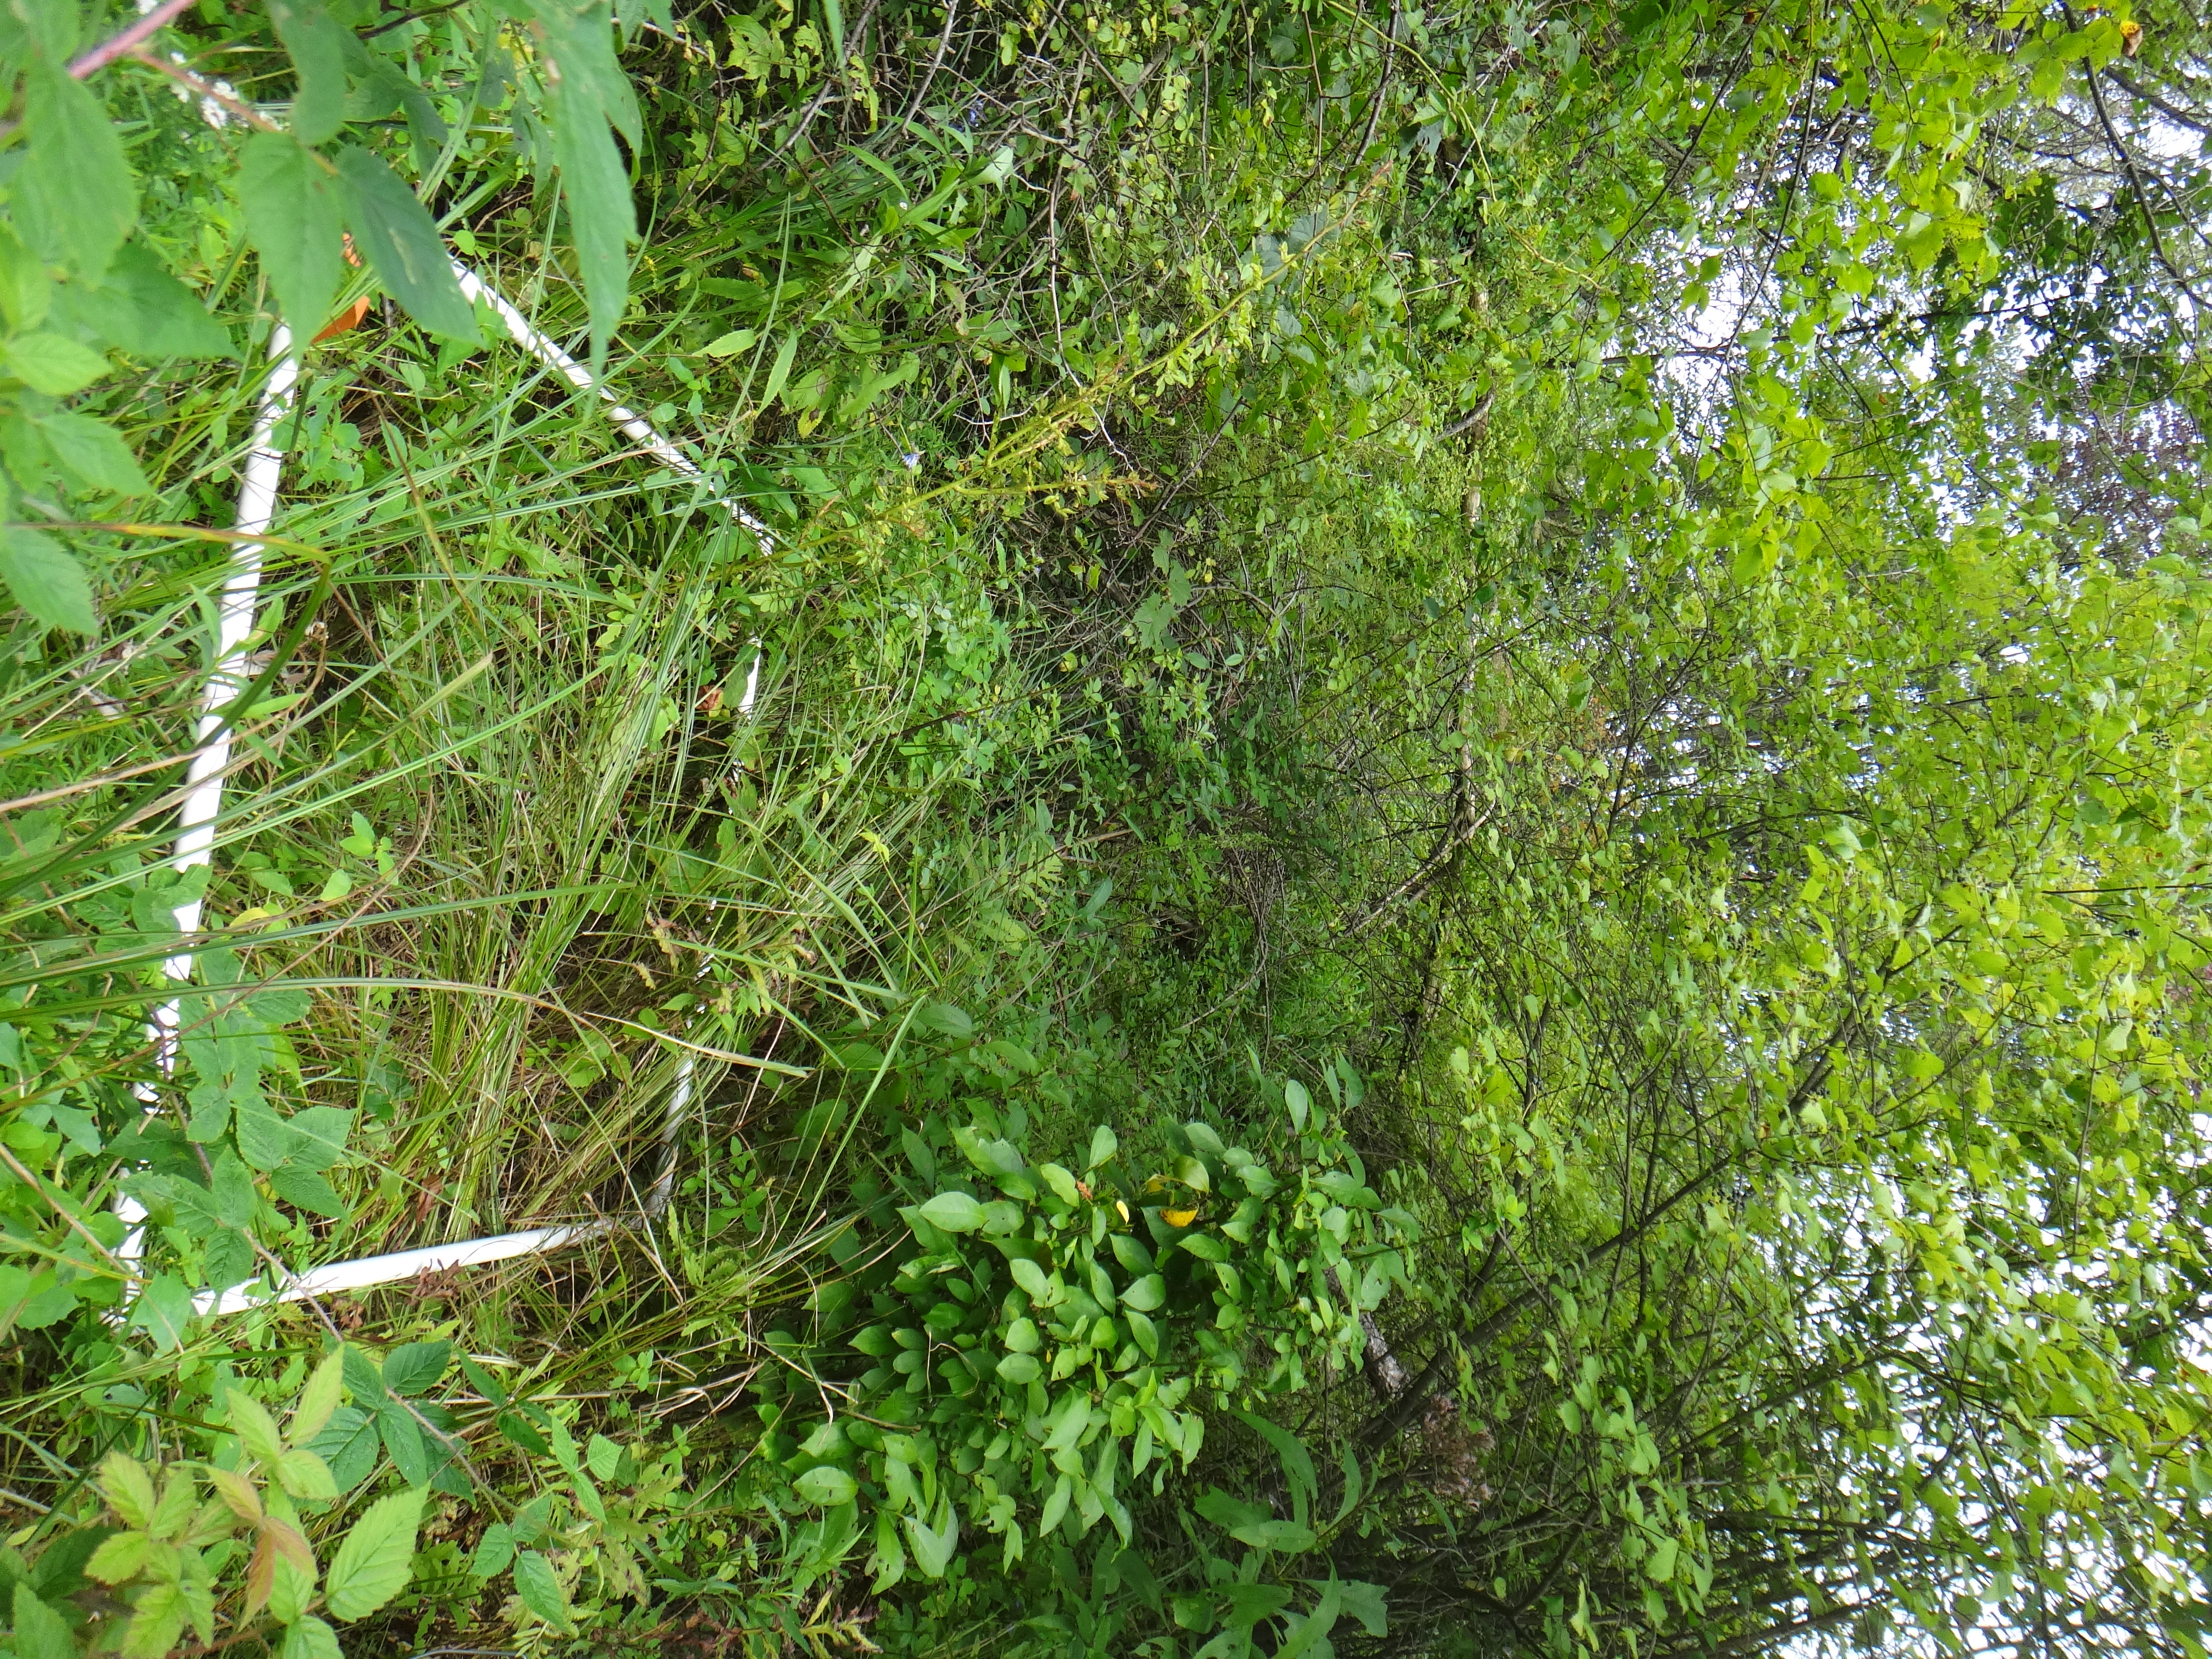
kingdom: Plantae
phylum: Tracheophyta
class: Liliopsida
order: Poales
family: Poaceae
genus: Calamagrostis
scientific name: Calamagrostis canadensis
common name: Canada bluejoint
